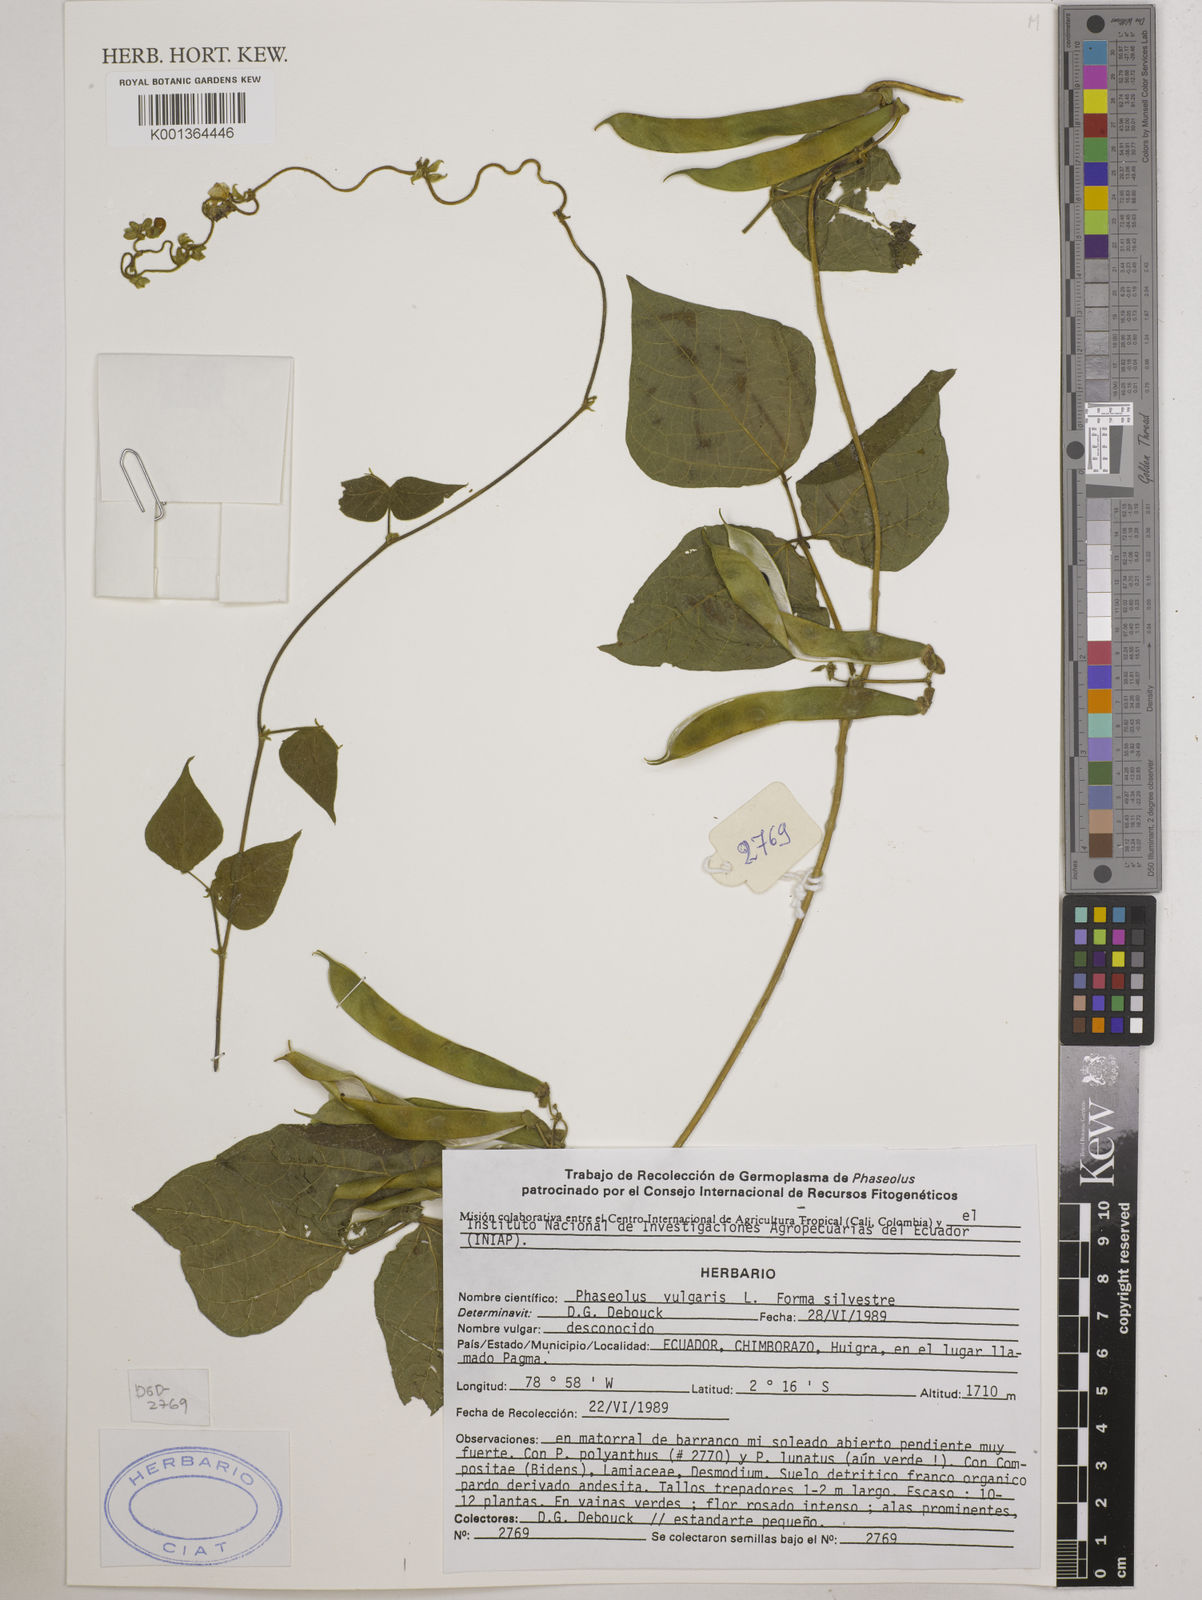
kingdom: Plantae
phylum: Tracheophyta
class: Magnoliopsida
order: Fabales
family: Fabaceae
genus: Phaseolus
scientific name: Phaseolus vulgaris
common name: Bean
